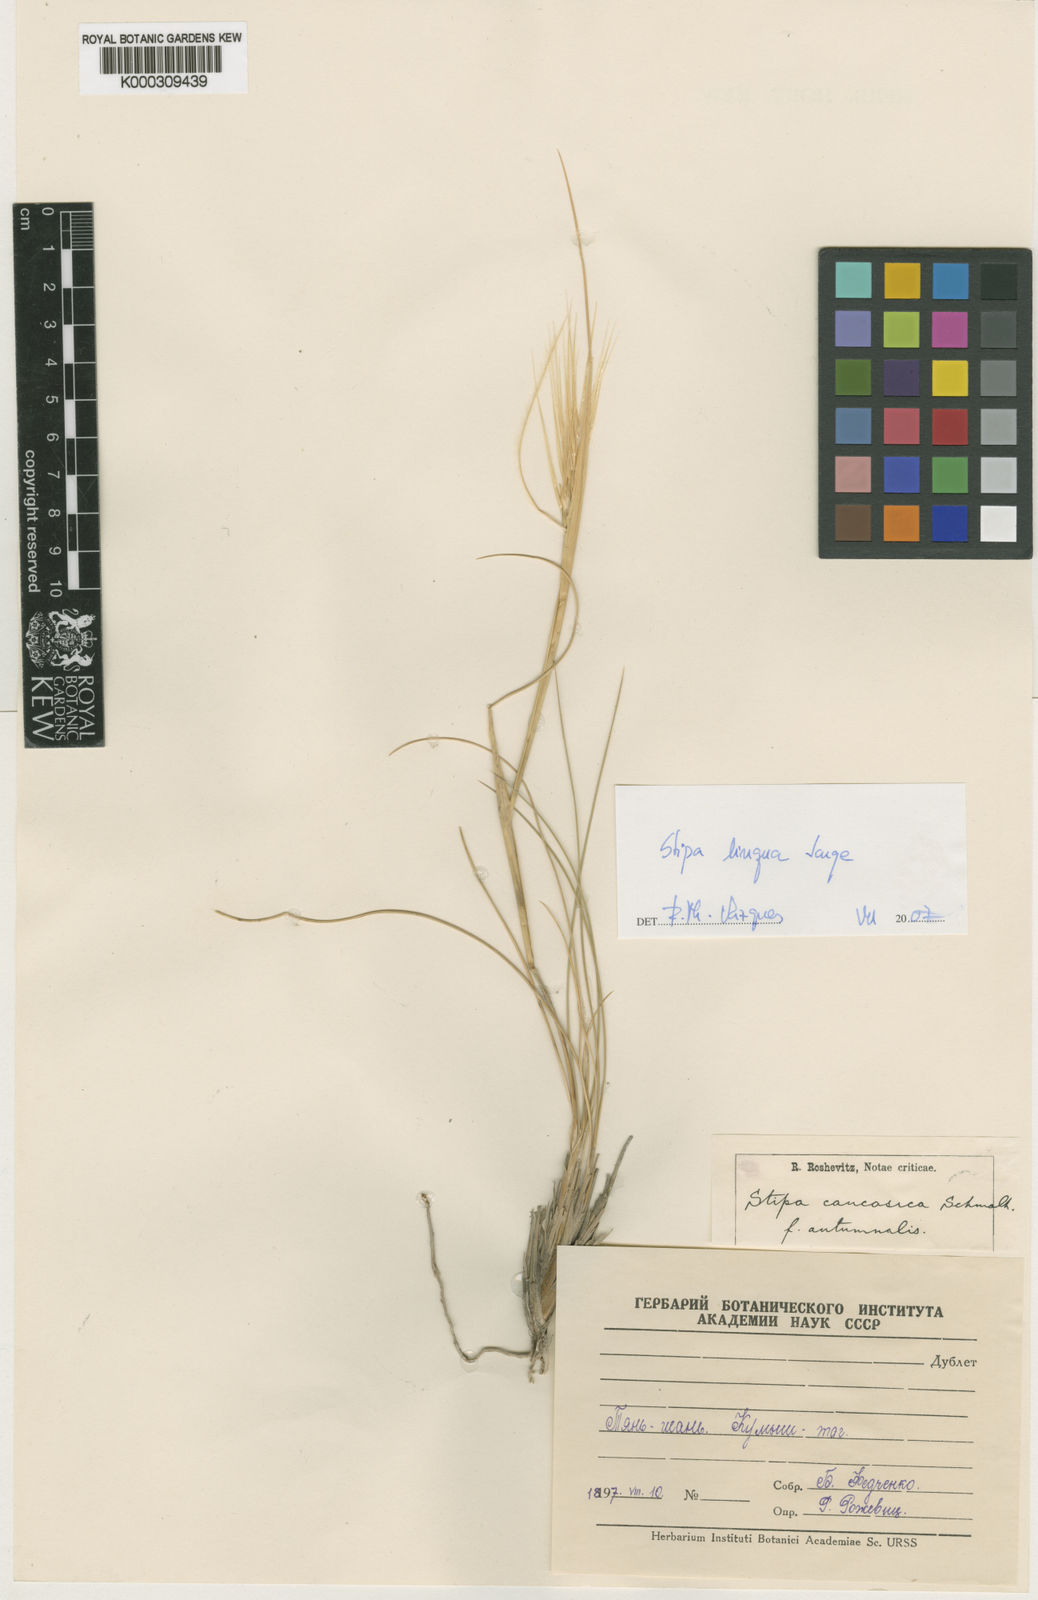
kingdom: Plantae
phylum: Tracheophyta
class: Liliopsida
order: Poales
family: Poaceae
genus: Stipa
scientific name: Stipa caucasica
